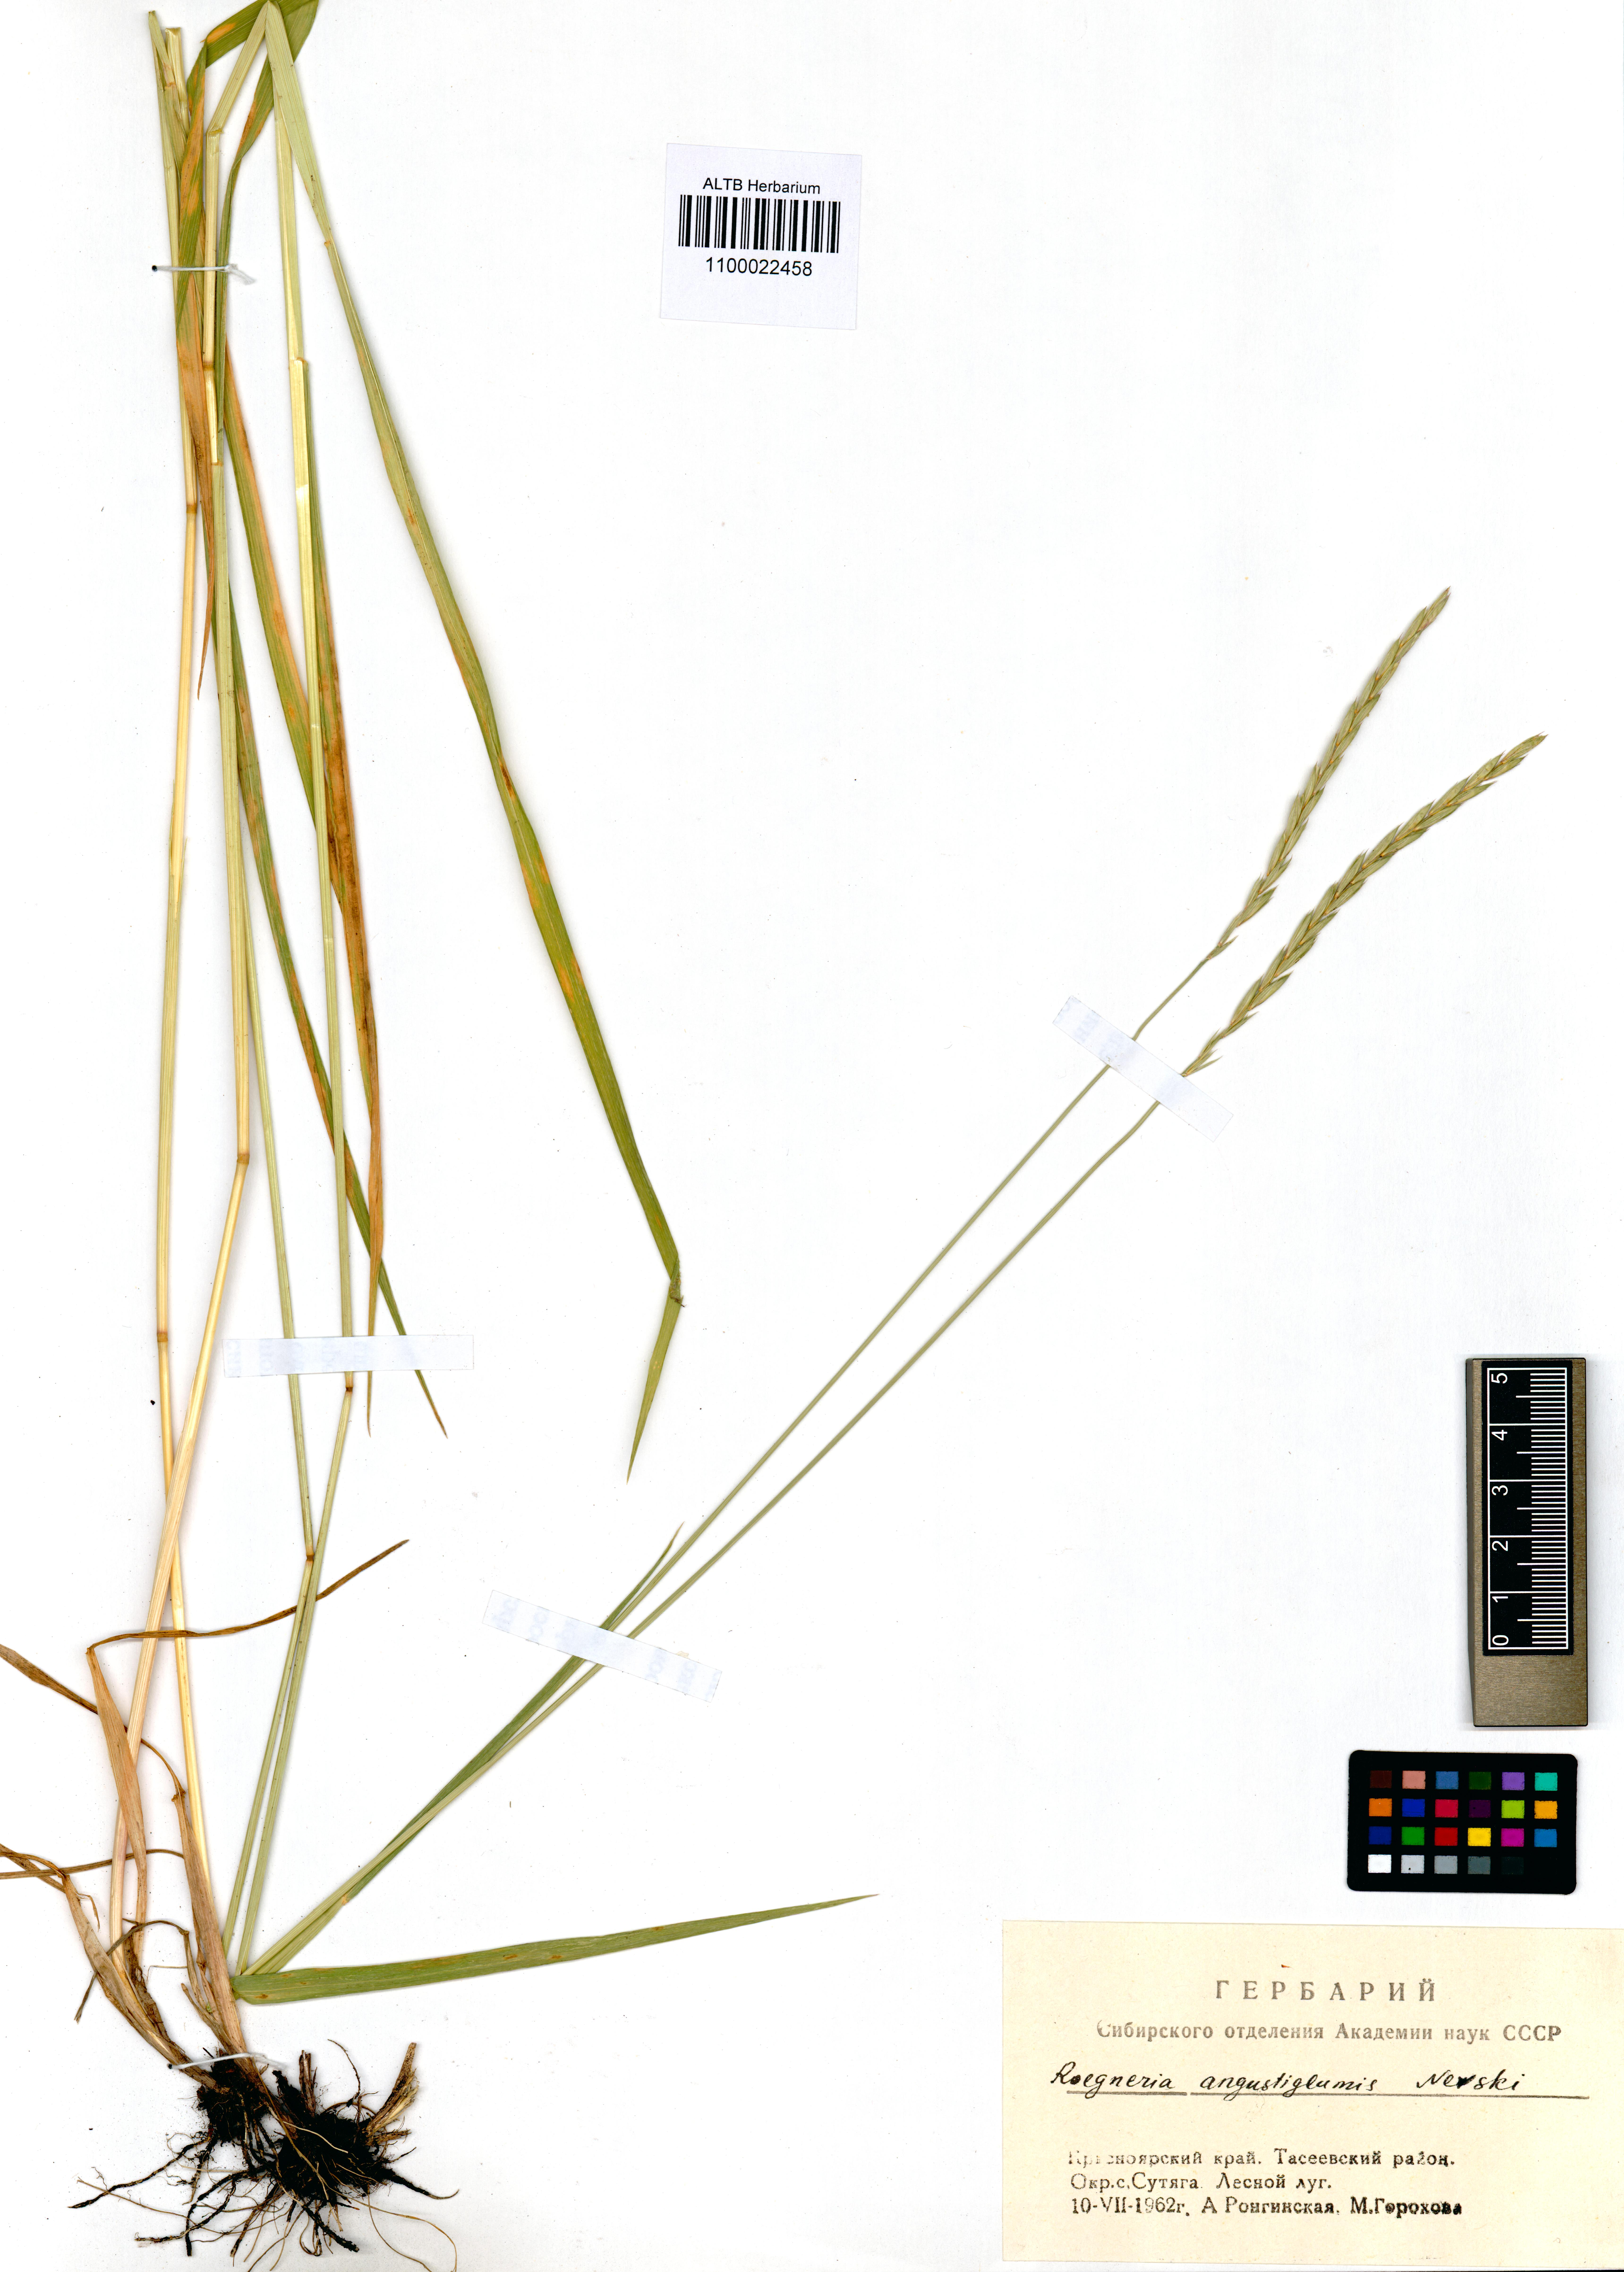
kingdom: Plantae
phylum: Tracheophyta
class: Liliopsida
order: Poales
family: Poaceae
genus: Elymus
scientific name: Elymus mutabilis
